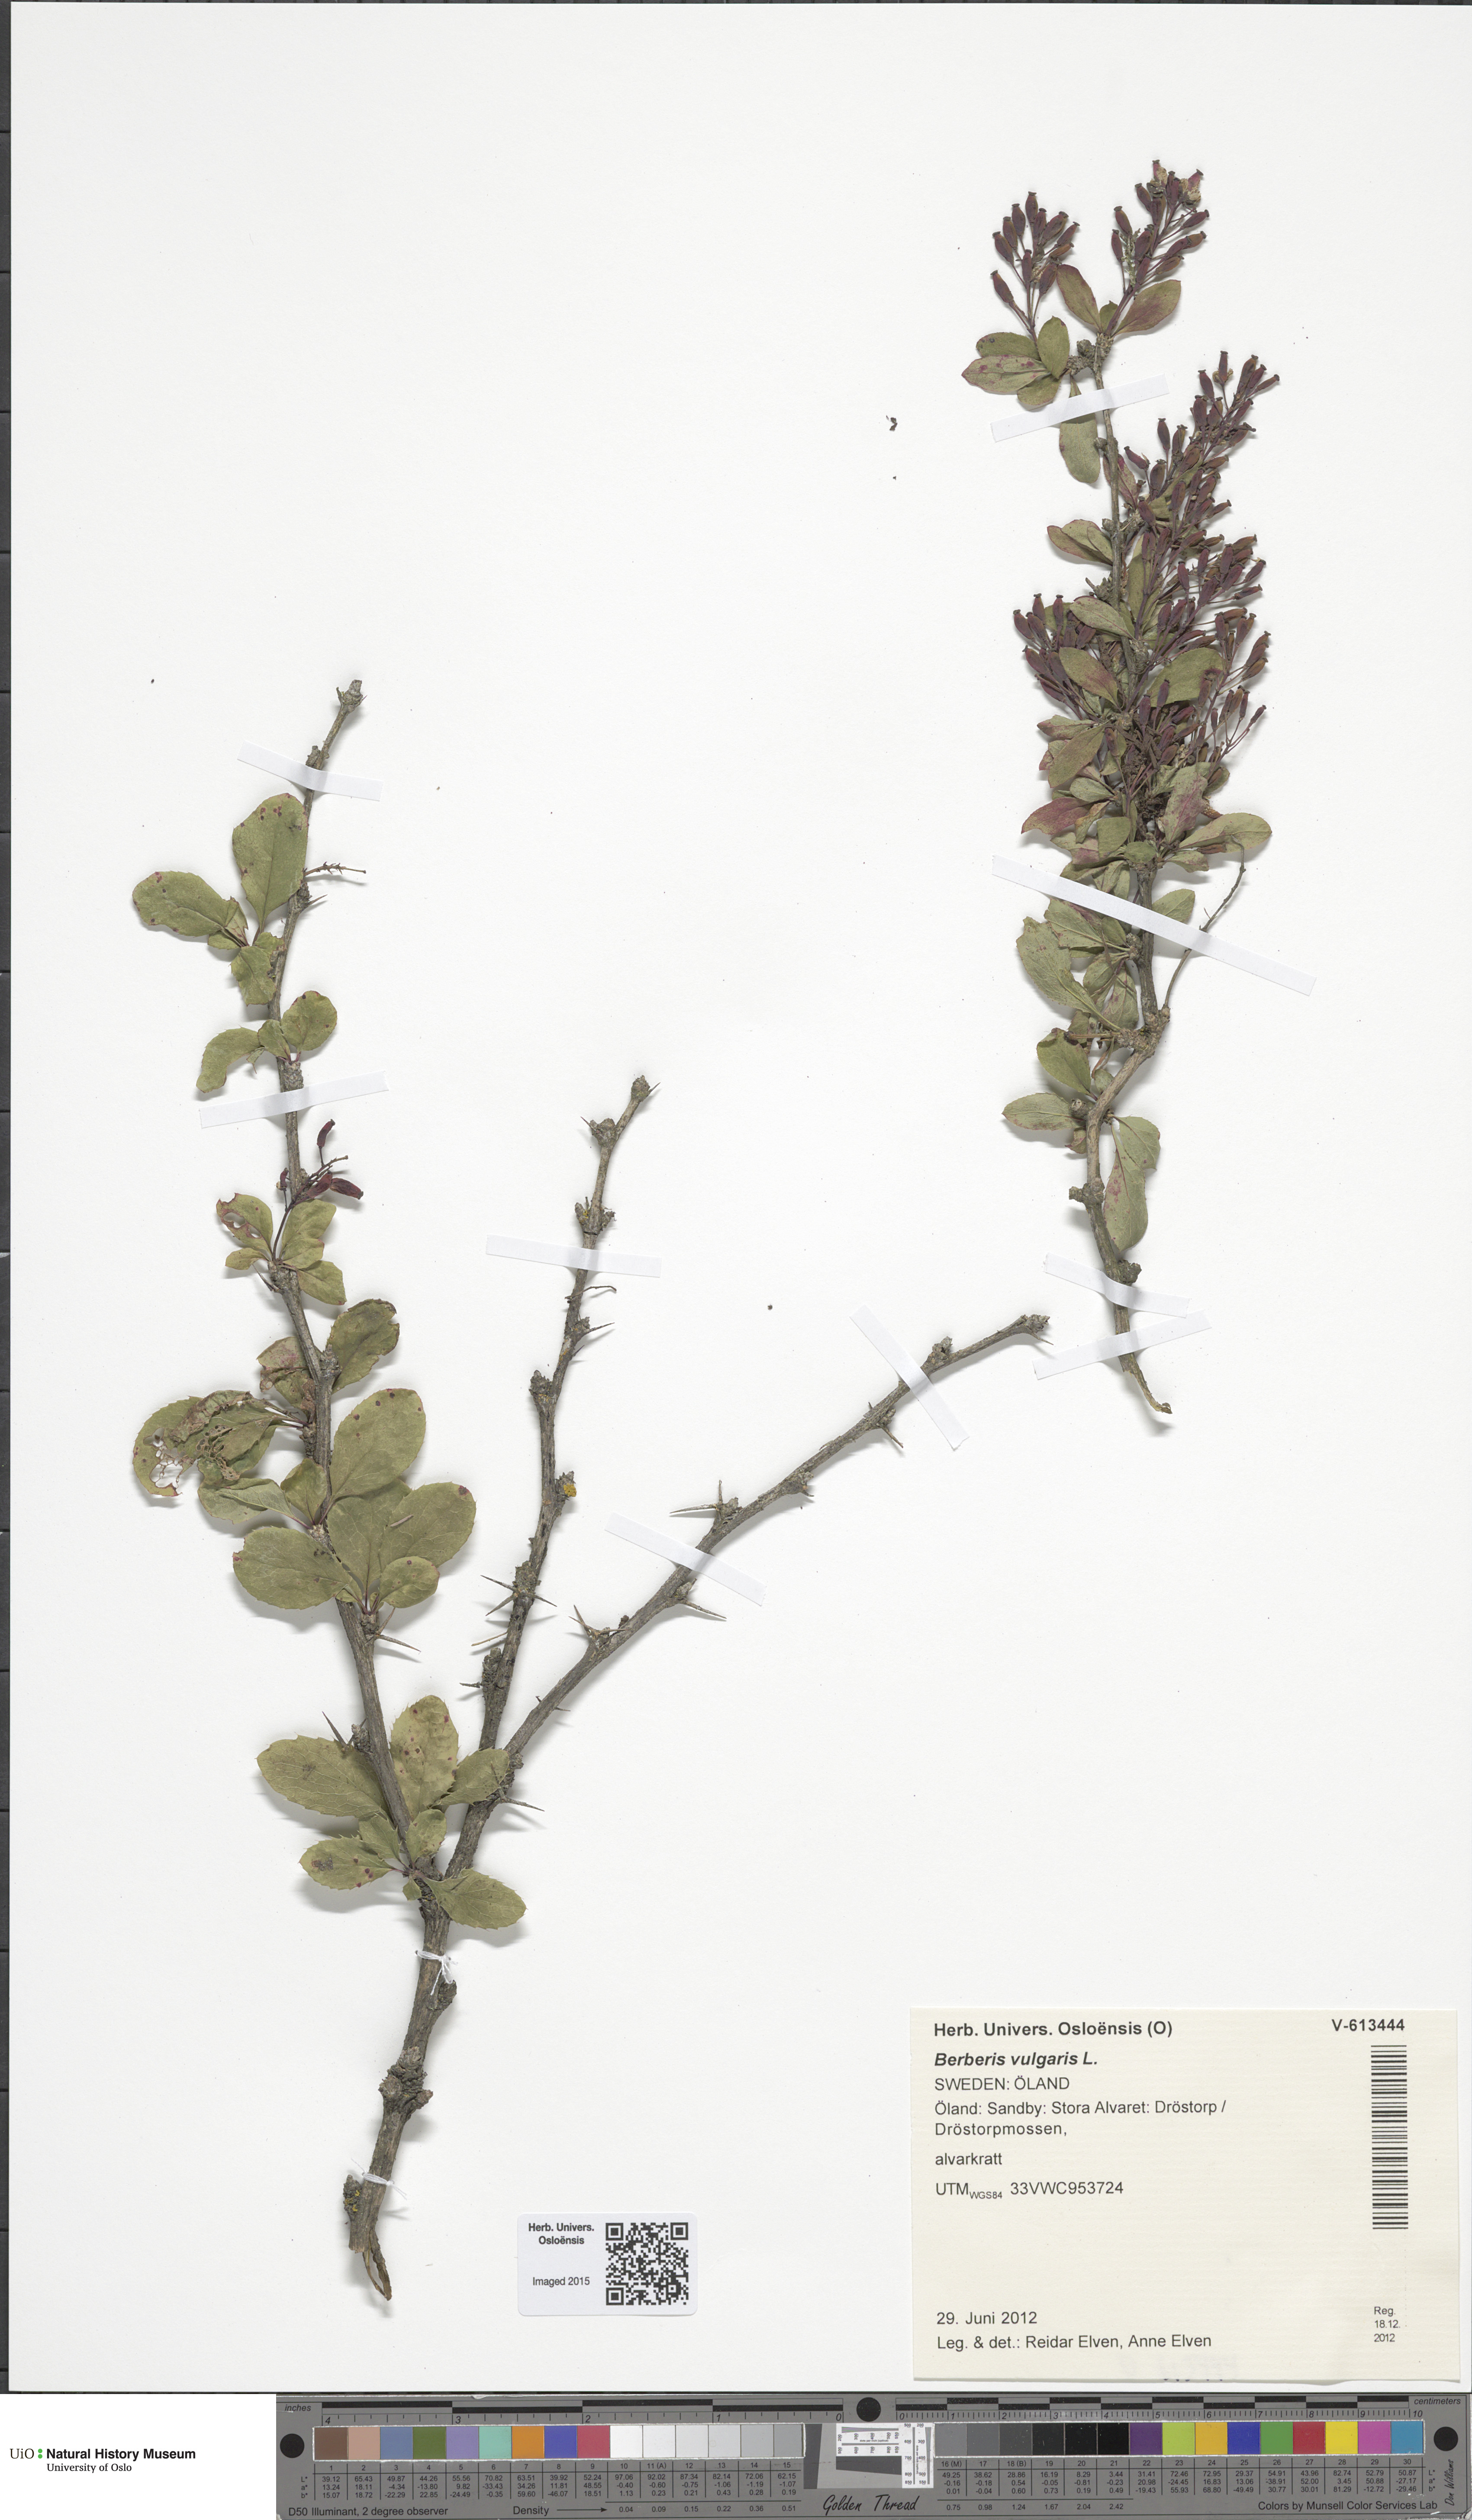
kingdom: Plantae
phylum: Tracheophyta
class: Magnoliopsida
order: Ranunculales
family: Berberidaceae
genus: Berberis
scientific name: Berberis vulgaris
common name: Barberry
